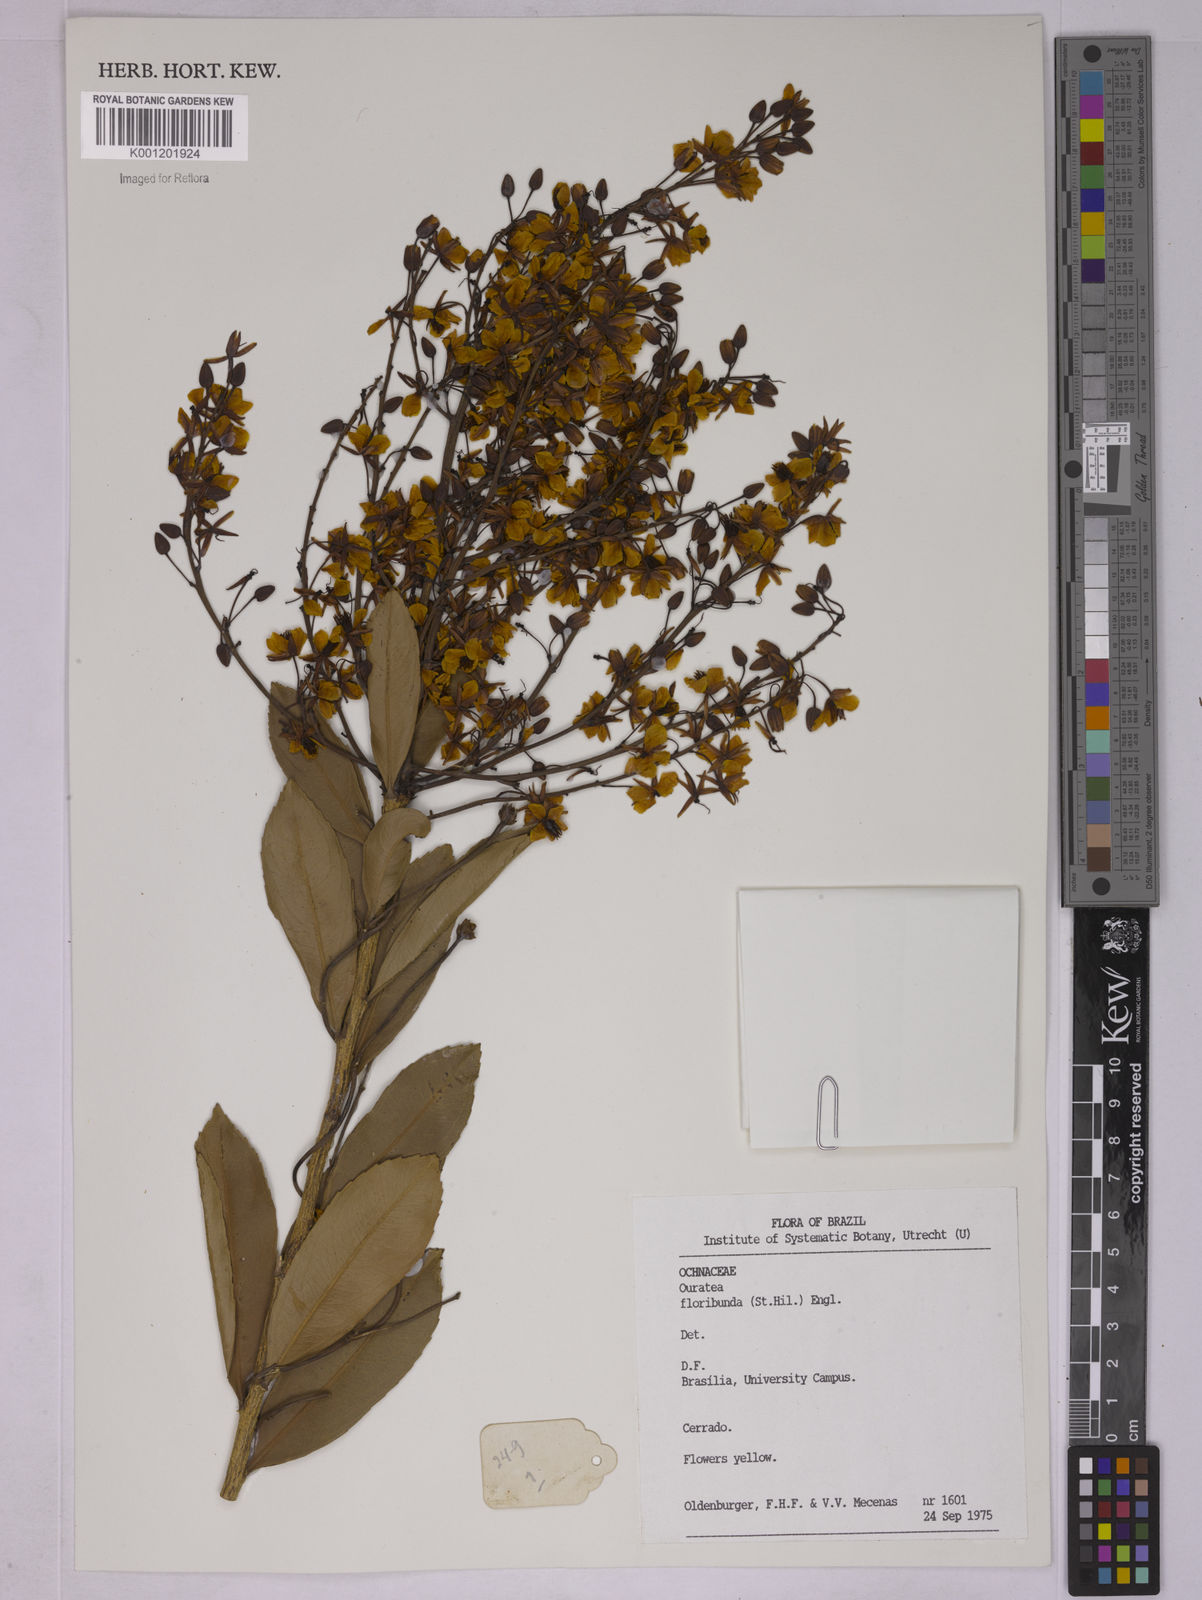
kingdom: Plantae
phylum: Tracheophyta
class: Magnoliopsida
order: Malpighiales
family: Ochnaceae
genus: Ouratea
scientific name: Ouratea floribunda
